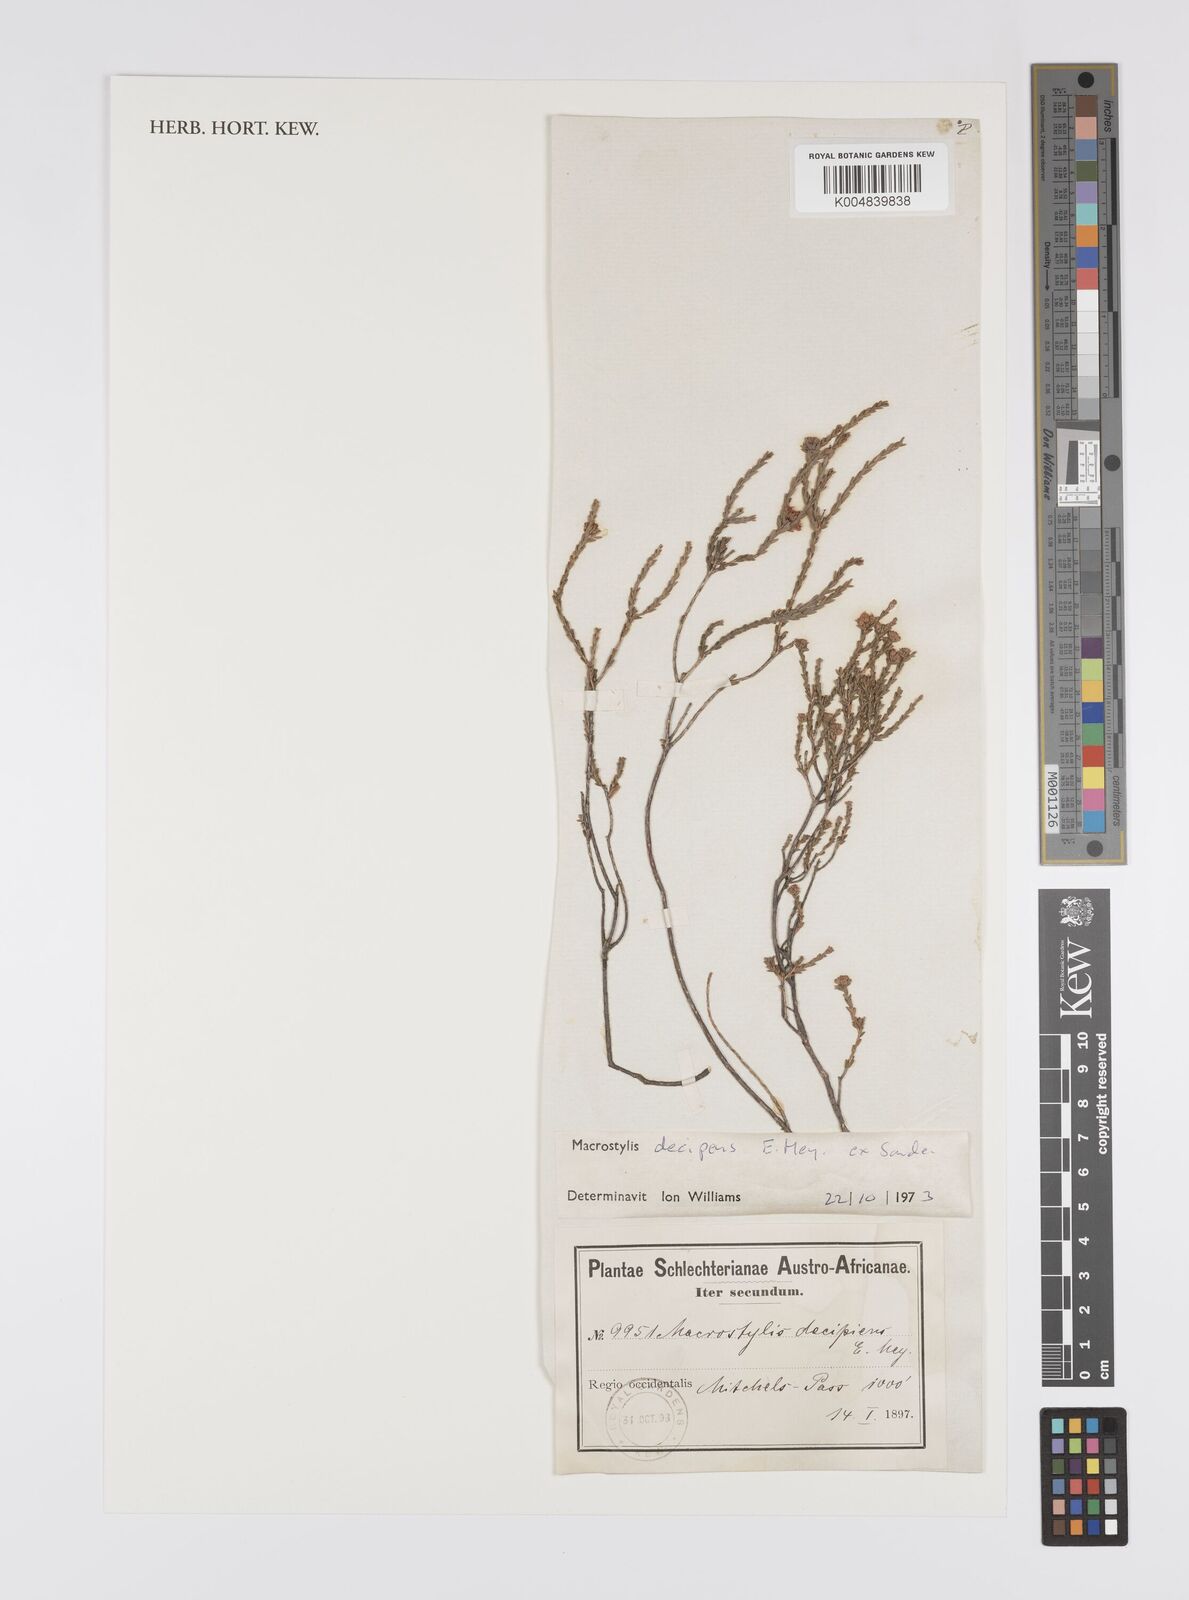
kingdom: Plantae
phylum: Tracheophyta
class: Magnoliopsida
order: Sapindales
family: Rutaceae
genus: Macrostylis
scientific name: Macrostylis decipiens
